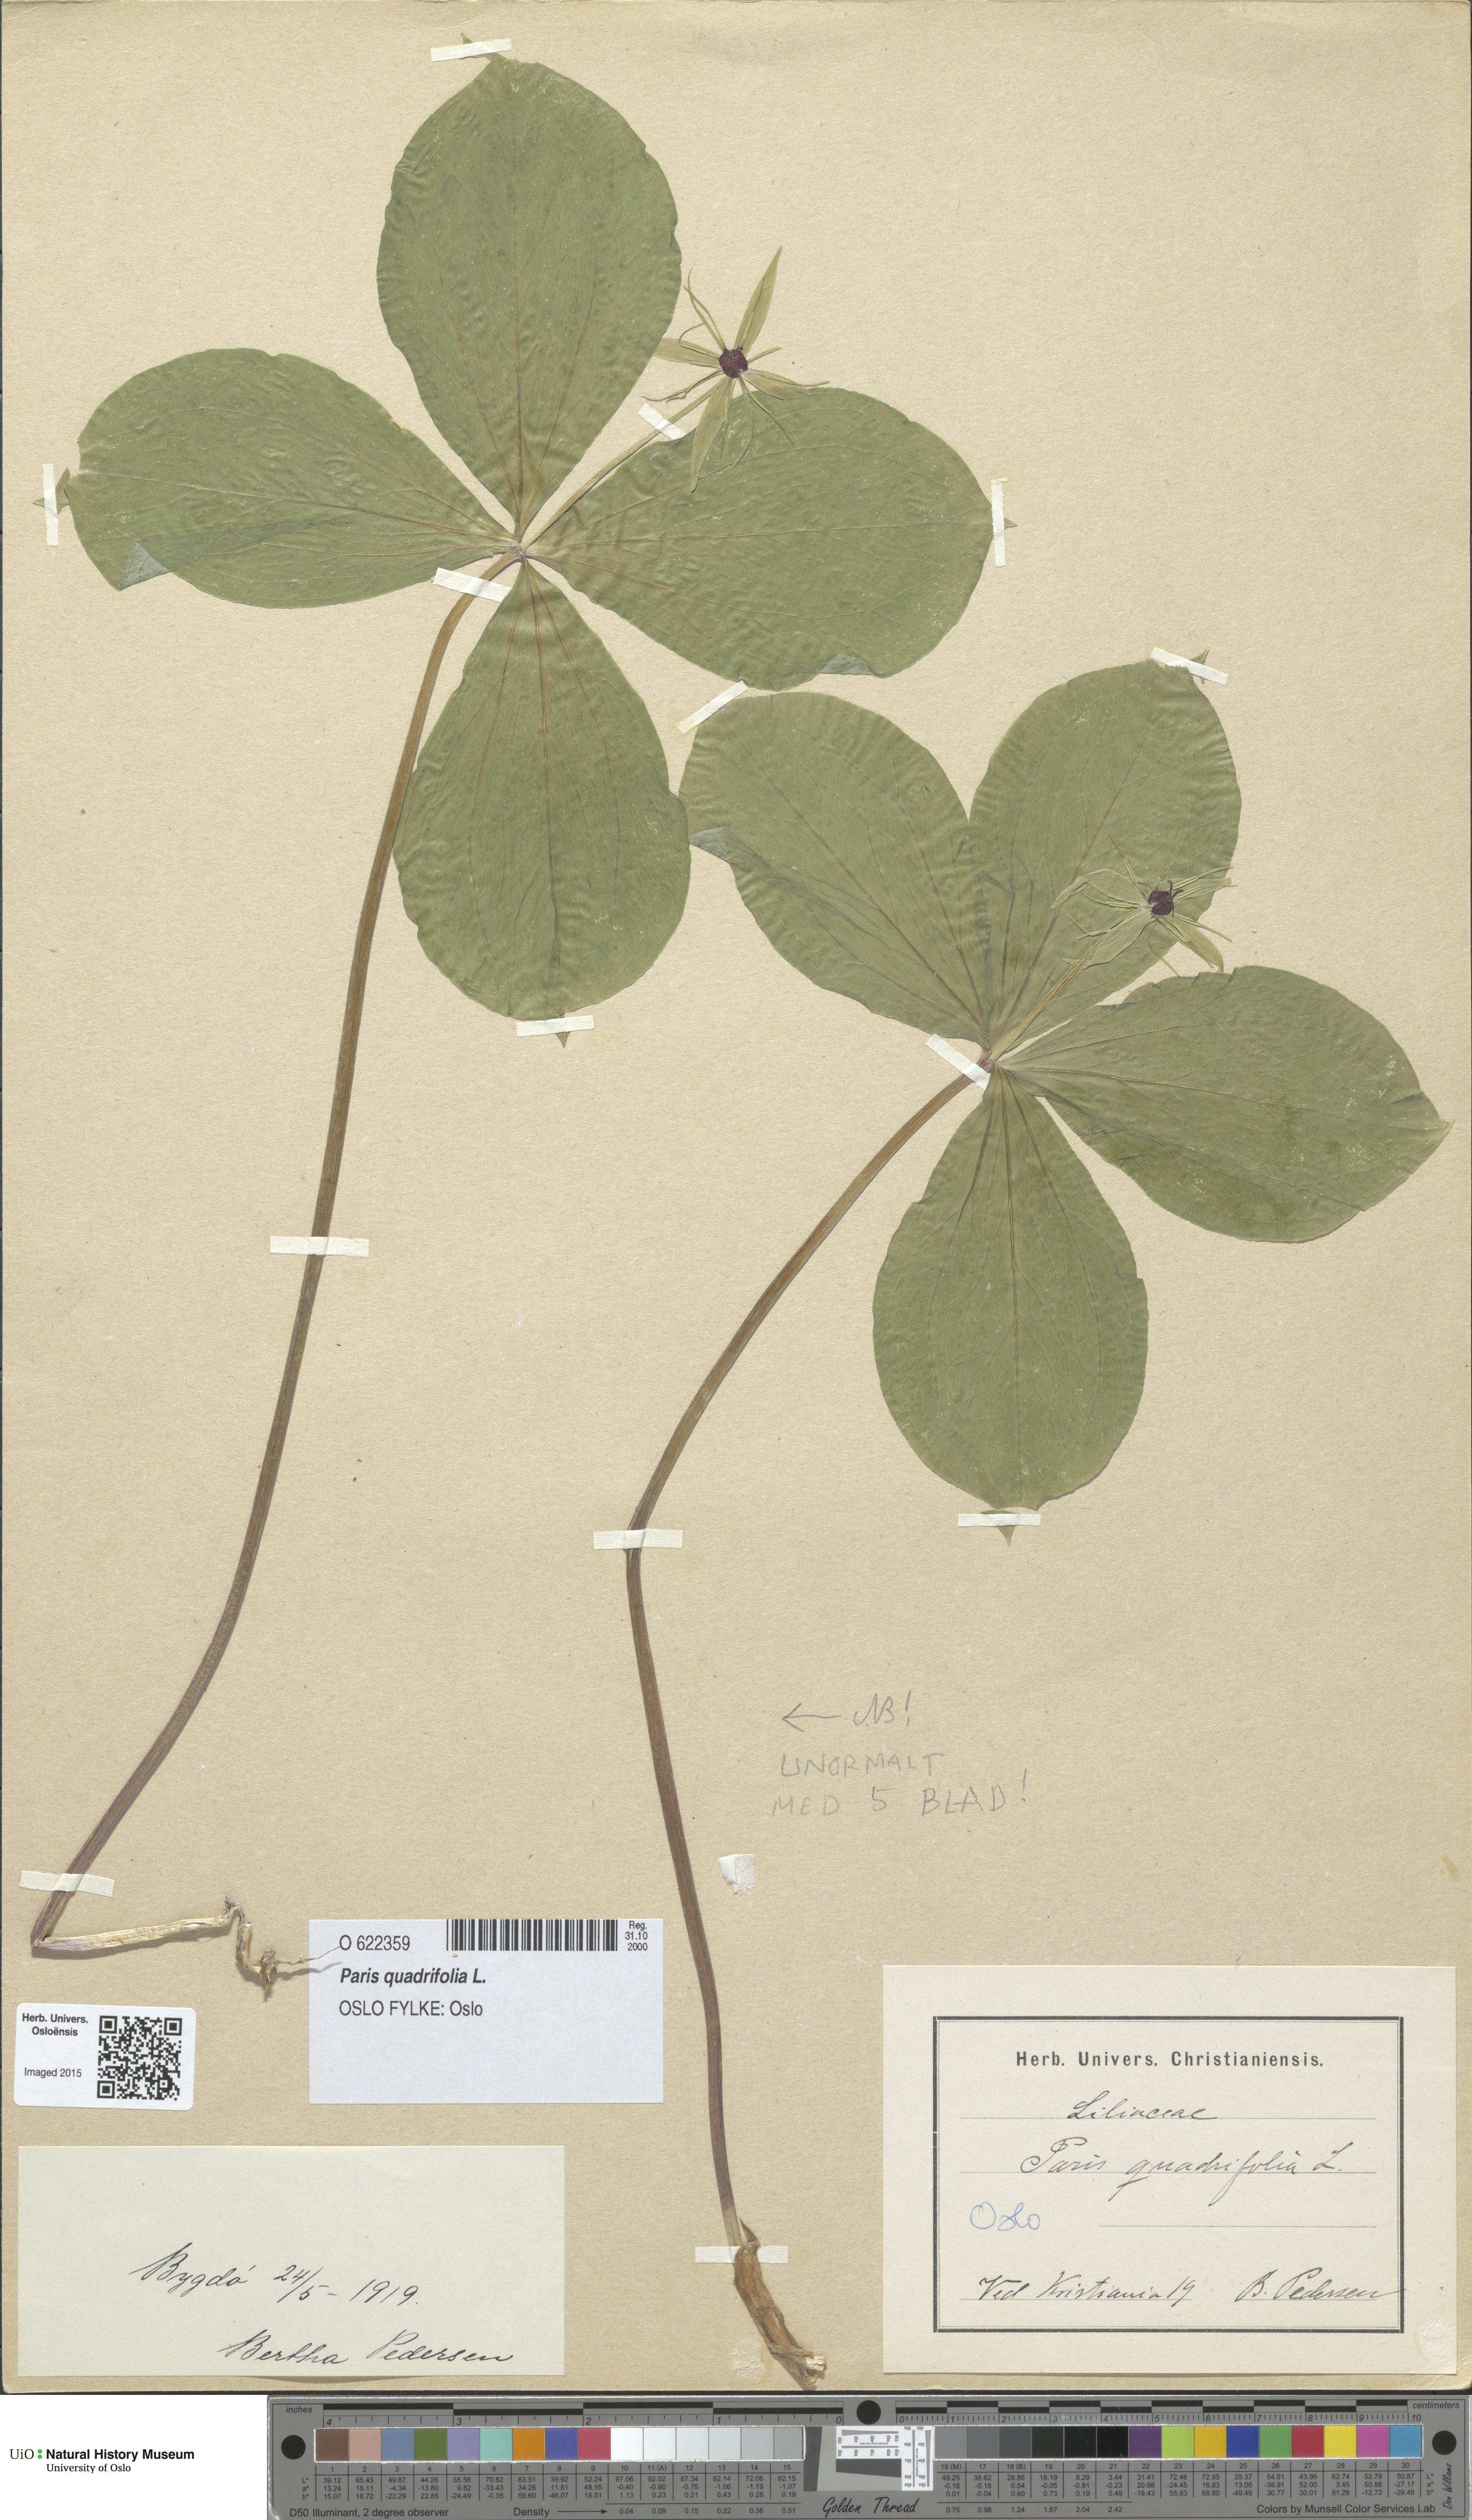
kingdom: Plantae
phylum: Tracheophyta
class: Liliopsida
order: Liliales
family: Melanthiaceae
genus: Paris
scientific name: Paris quadrifolia
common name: Herb-paris
